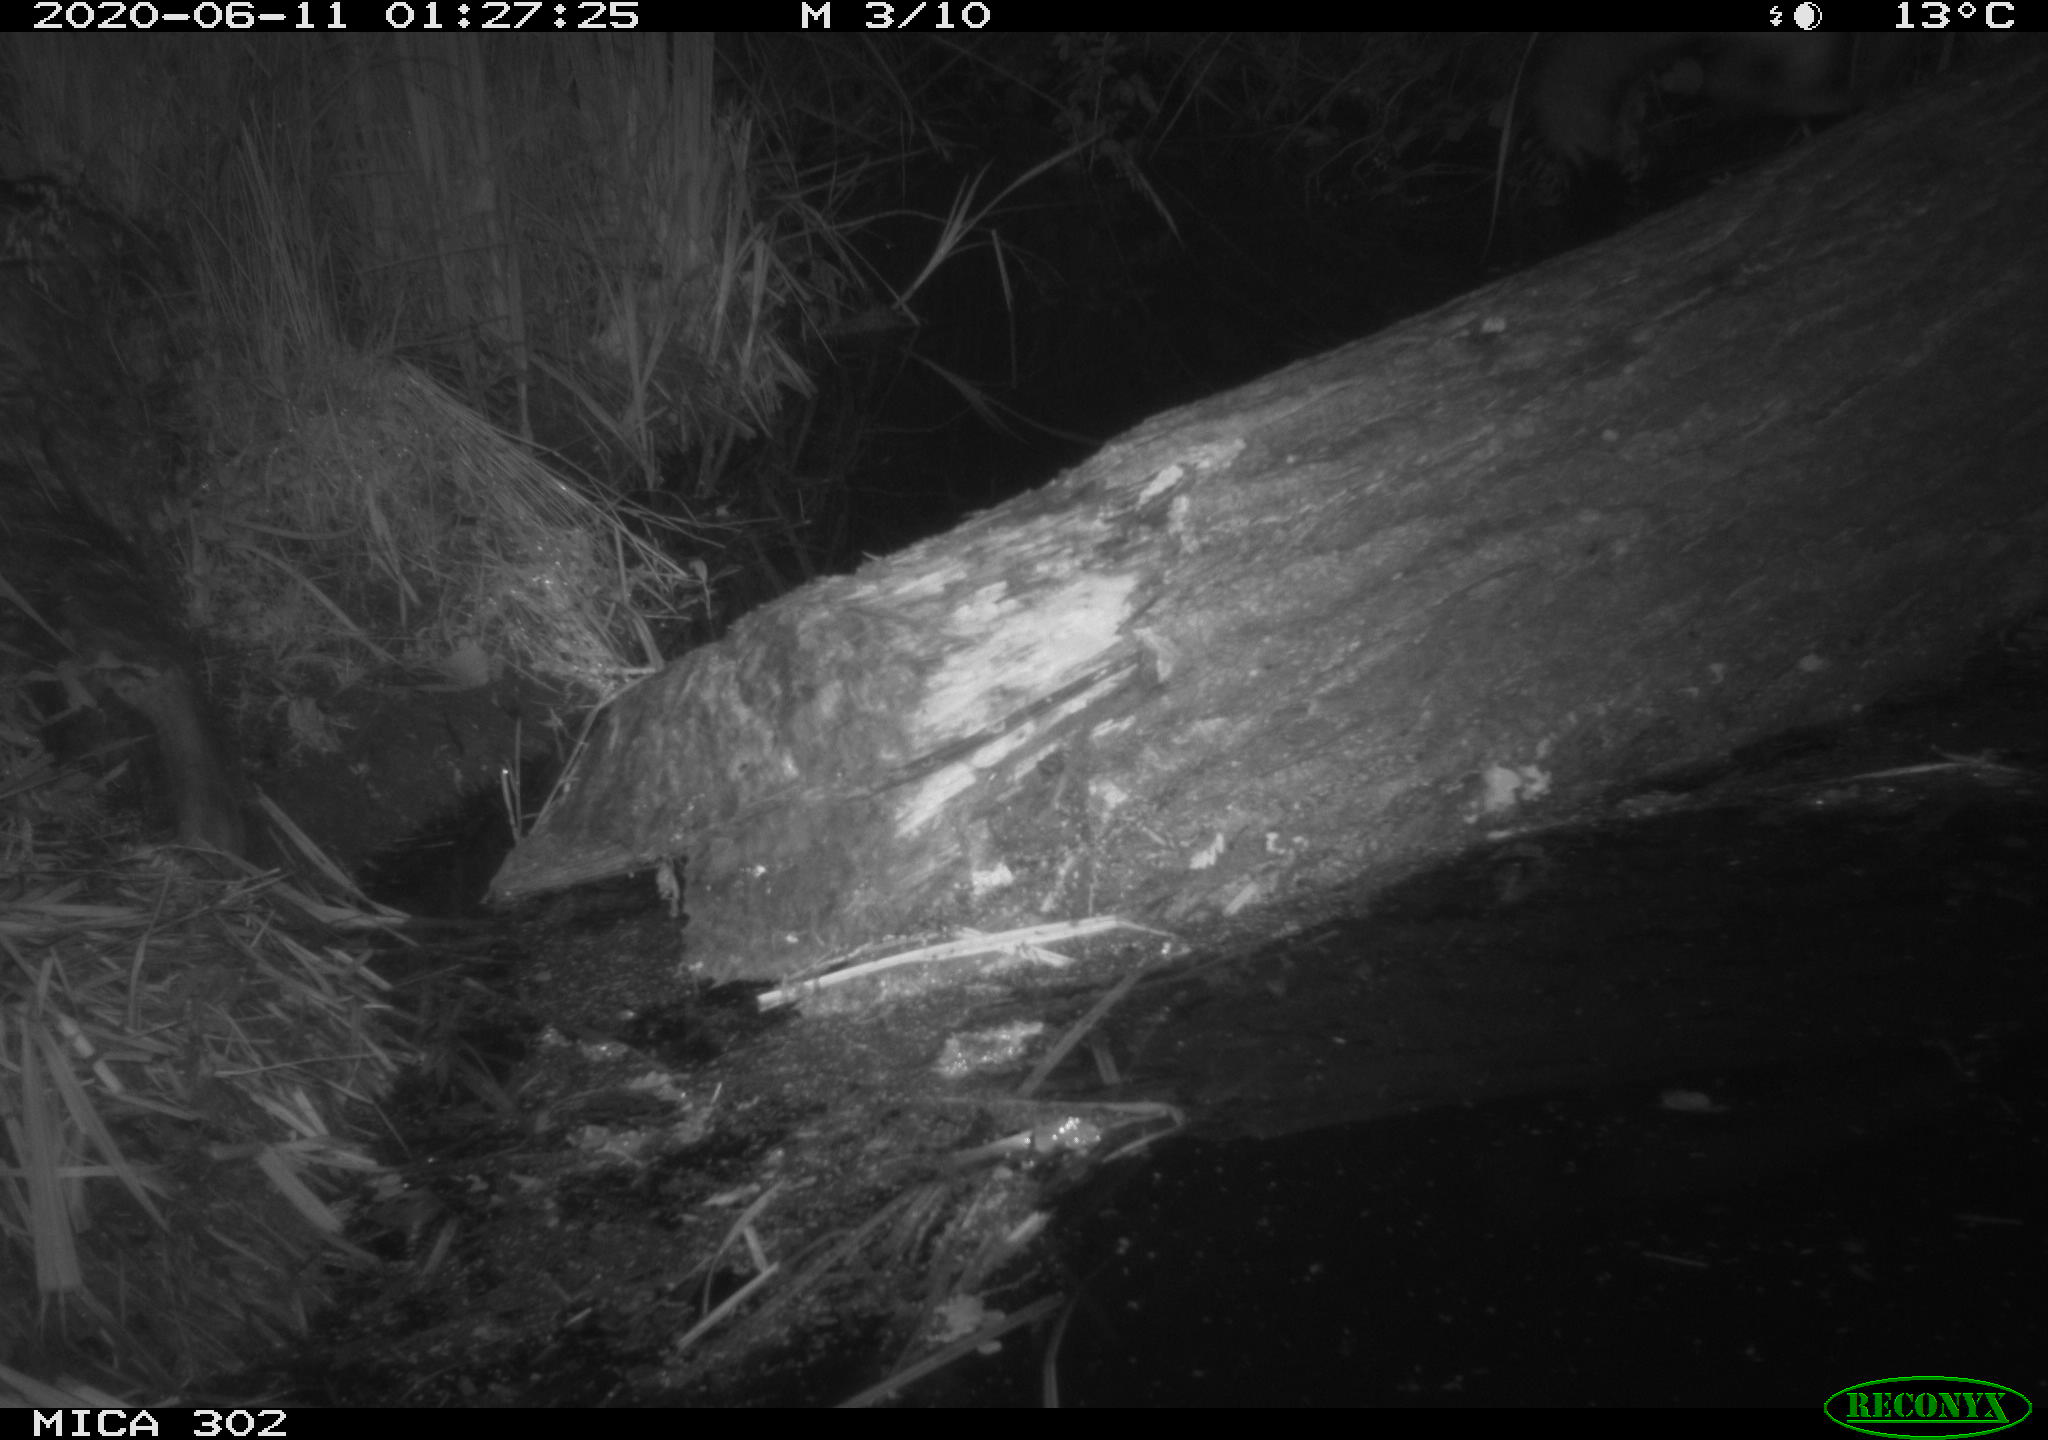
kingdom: Animalia
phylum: Chordata
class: Mammalia
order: Carnivora
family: Mustelidae
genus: Martes
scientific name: Martes foina
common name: Beech marten
